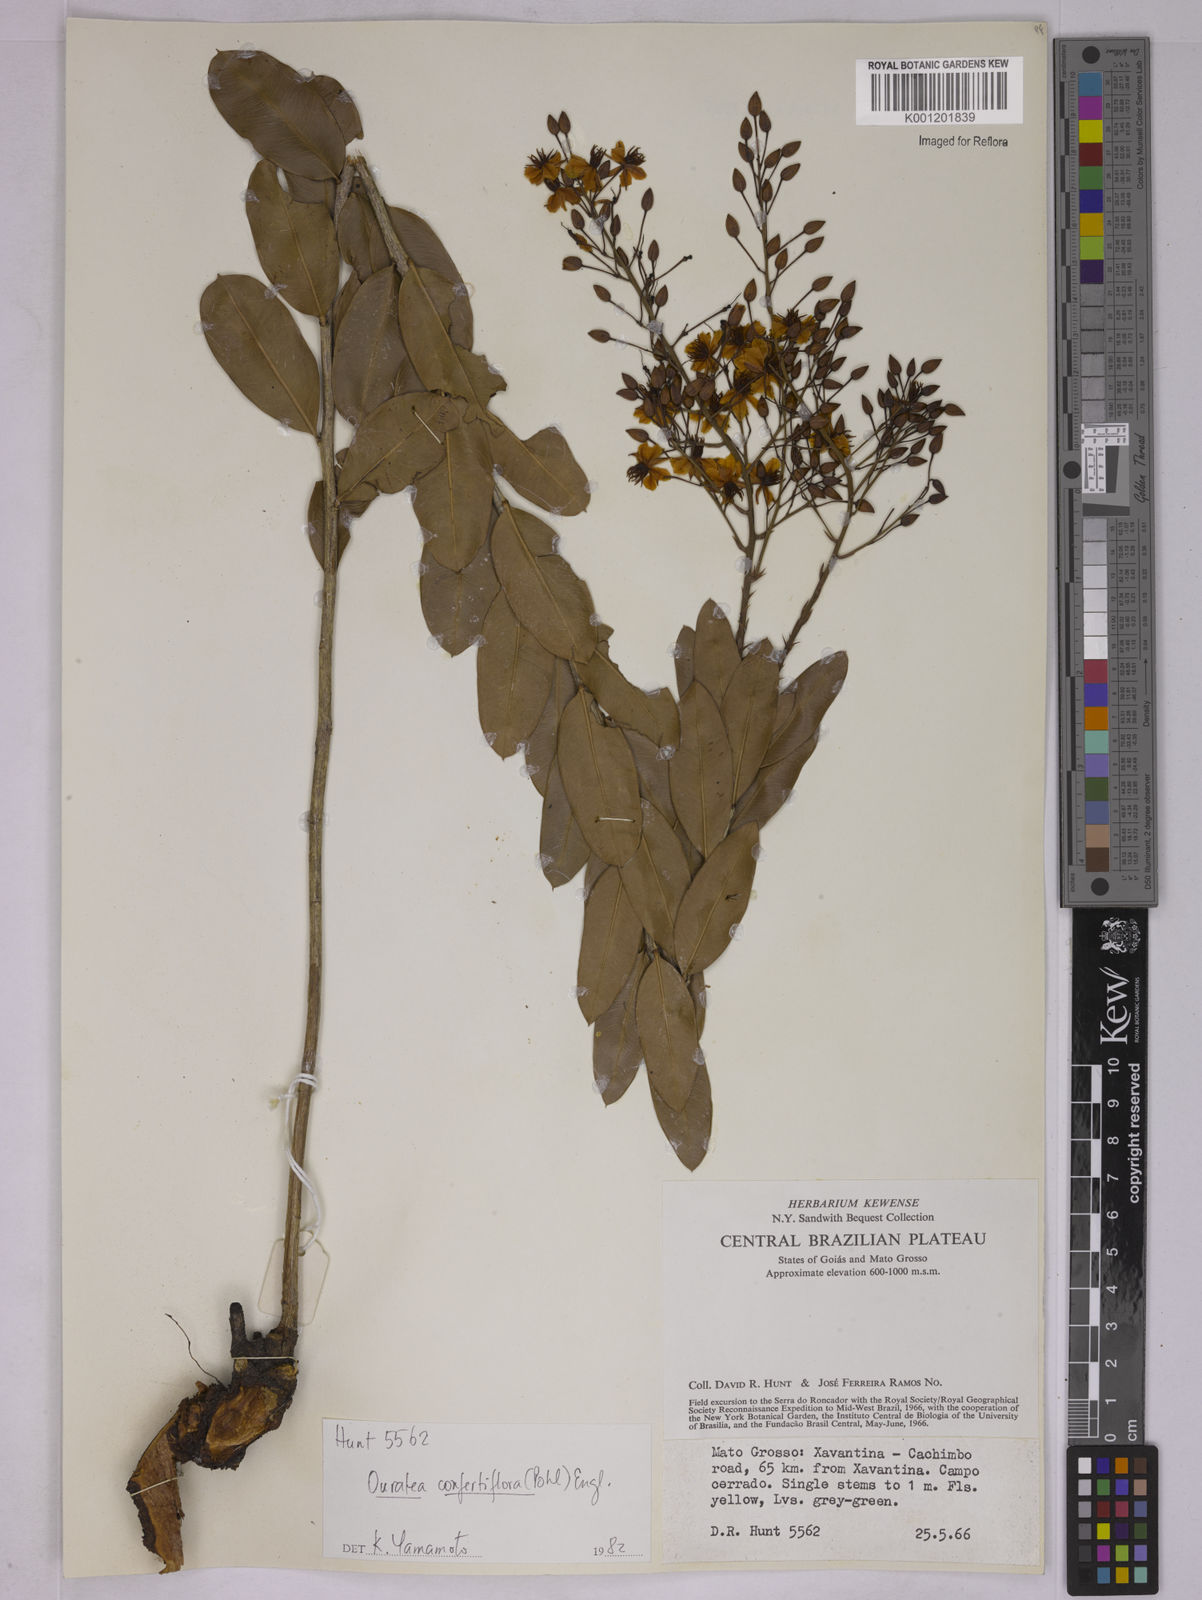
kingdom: Plantae
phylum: Tracheophyta
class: Magnoliopsida
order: Malpighiales
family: Ochnaceae
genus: Ouratea
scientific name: Ouratea confertiflora
